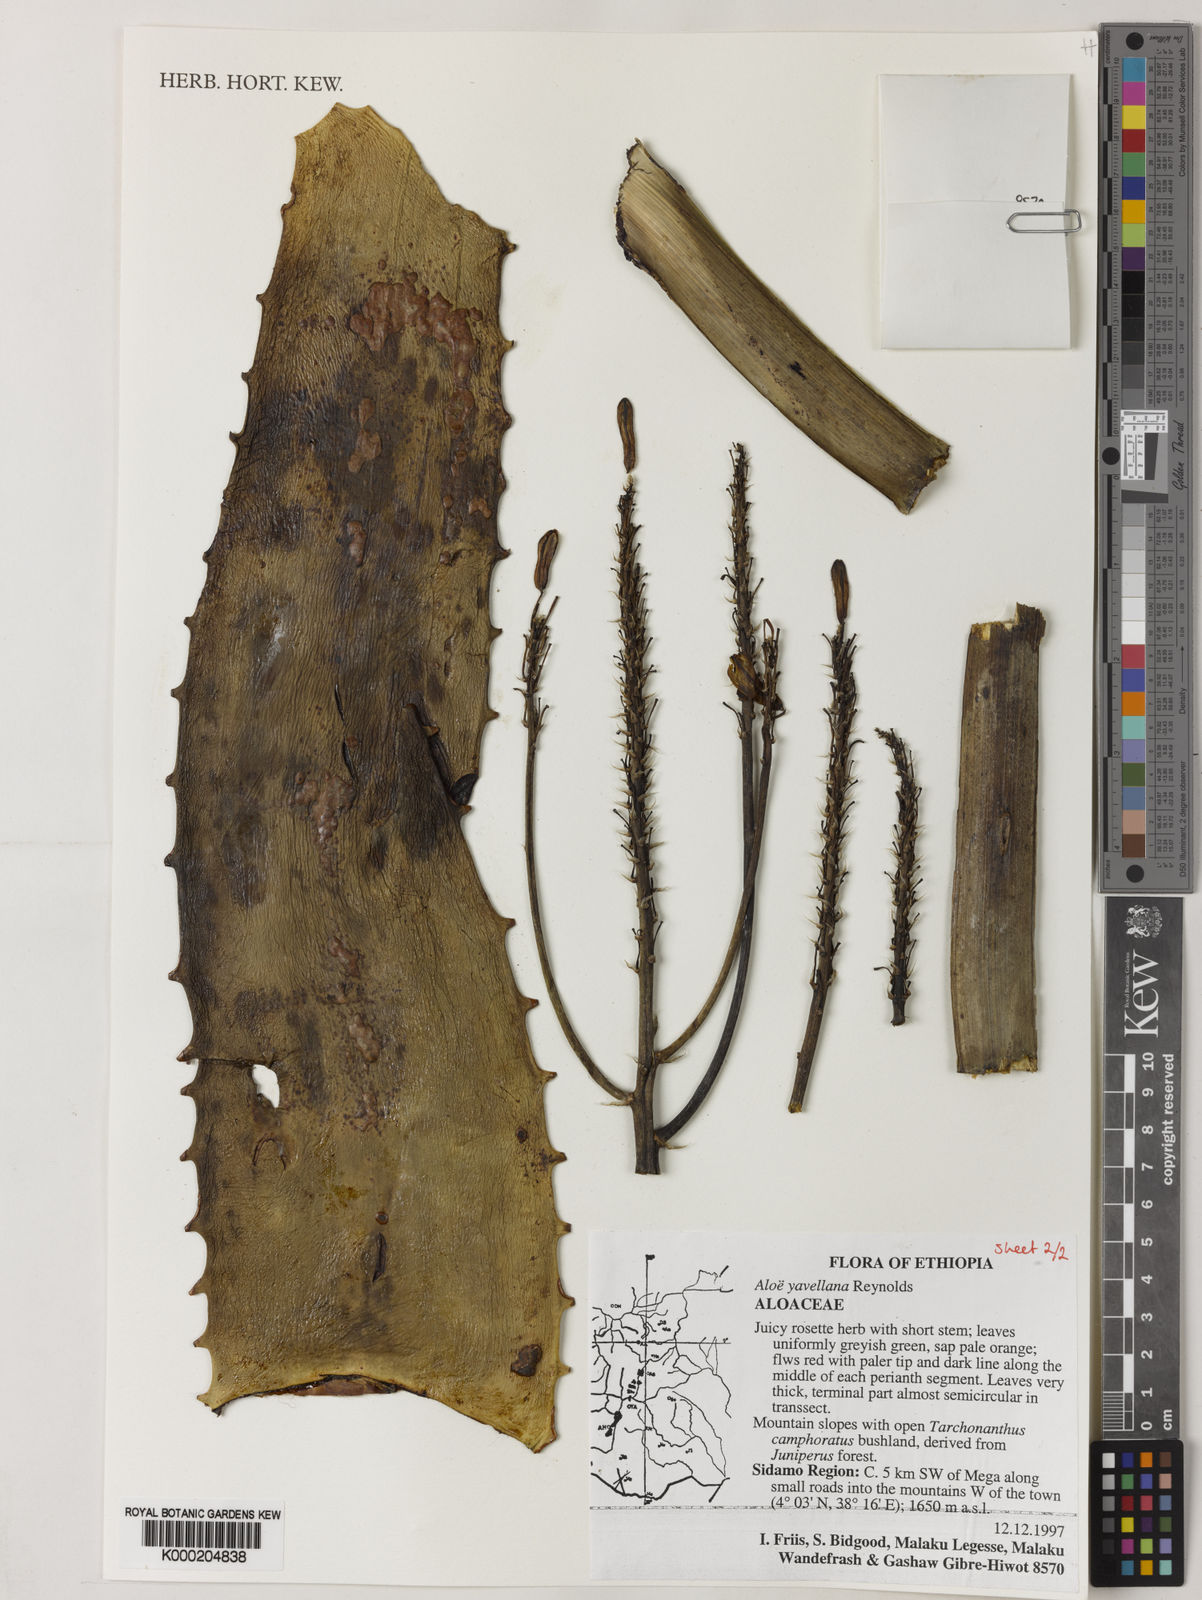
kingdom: Plantae
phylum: Tracheophyta
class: Liliopsida
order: Asparagales
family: Asphodelaceae
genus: Aloe
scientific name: Aloe yavellana
